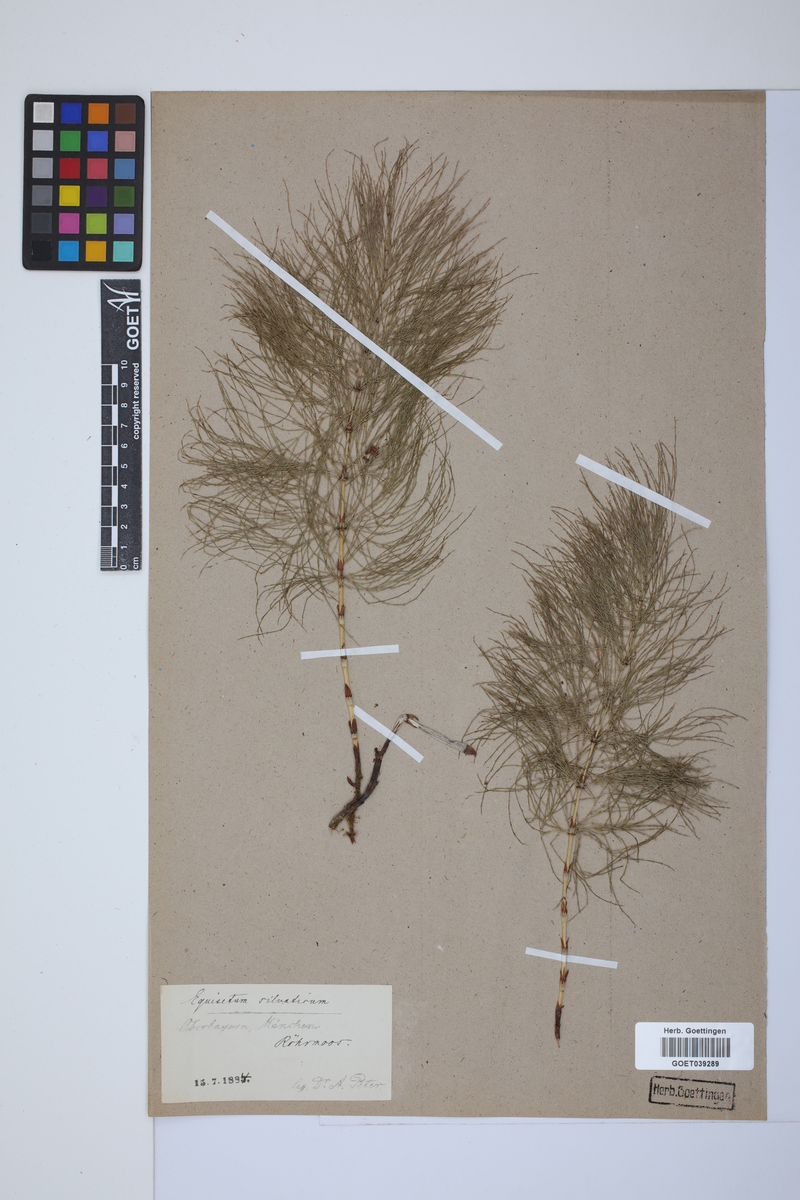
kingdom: Plantae
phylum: Tracheophyta
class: Polypodiopsida
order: Equisetales
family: Equisetaceae
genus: Equisetum
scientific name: Equisetum sylvaticum
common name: Wood horsetail
